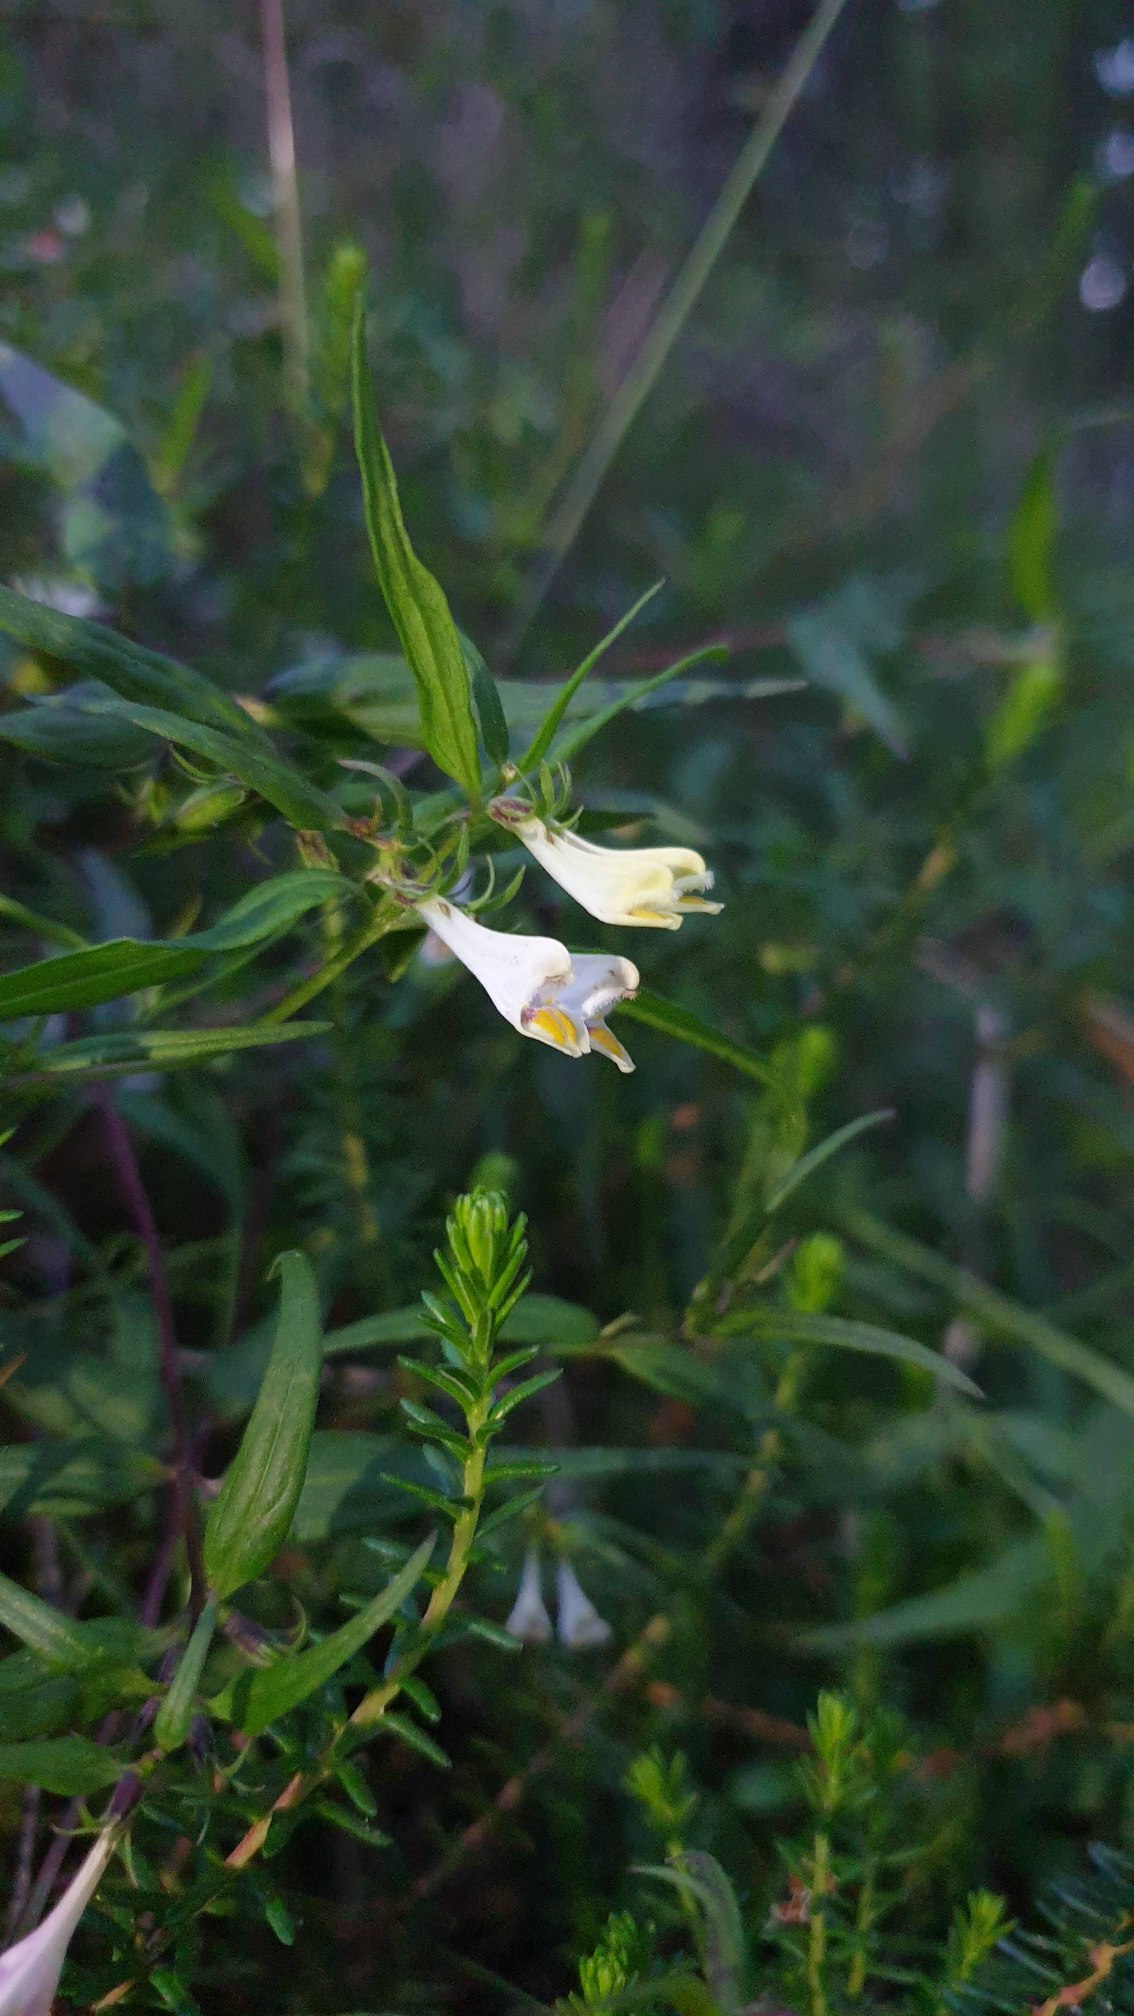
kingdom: Plantae
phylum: Tracheophyta
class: Magnoliopsida
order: Lamiales
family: Orobanchaceae
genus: Melampyrum
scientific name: Melampyrum pratense
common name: Almindelig kohvede
